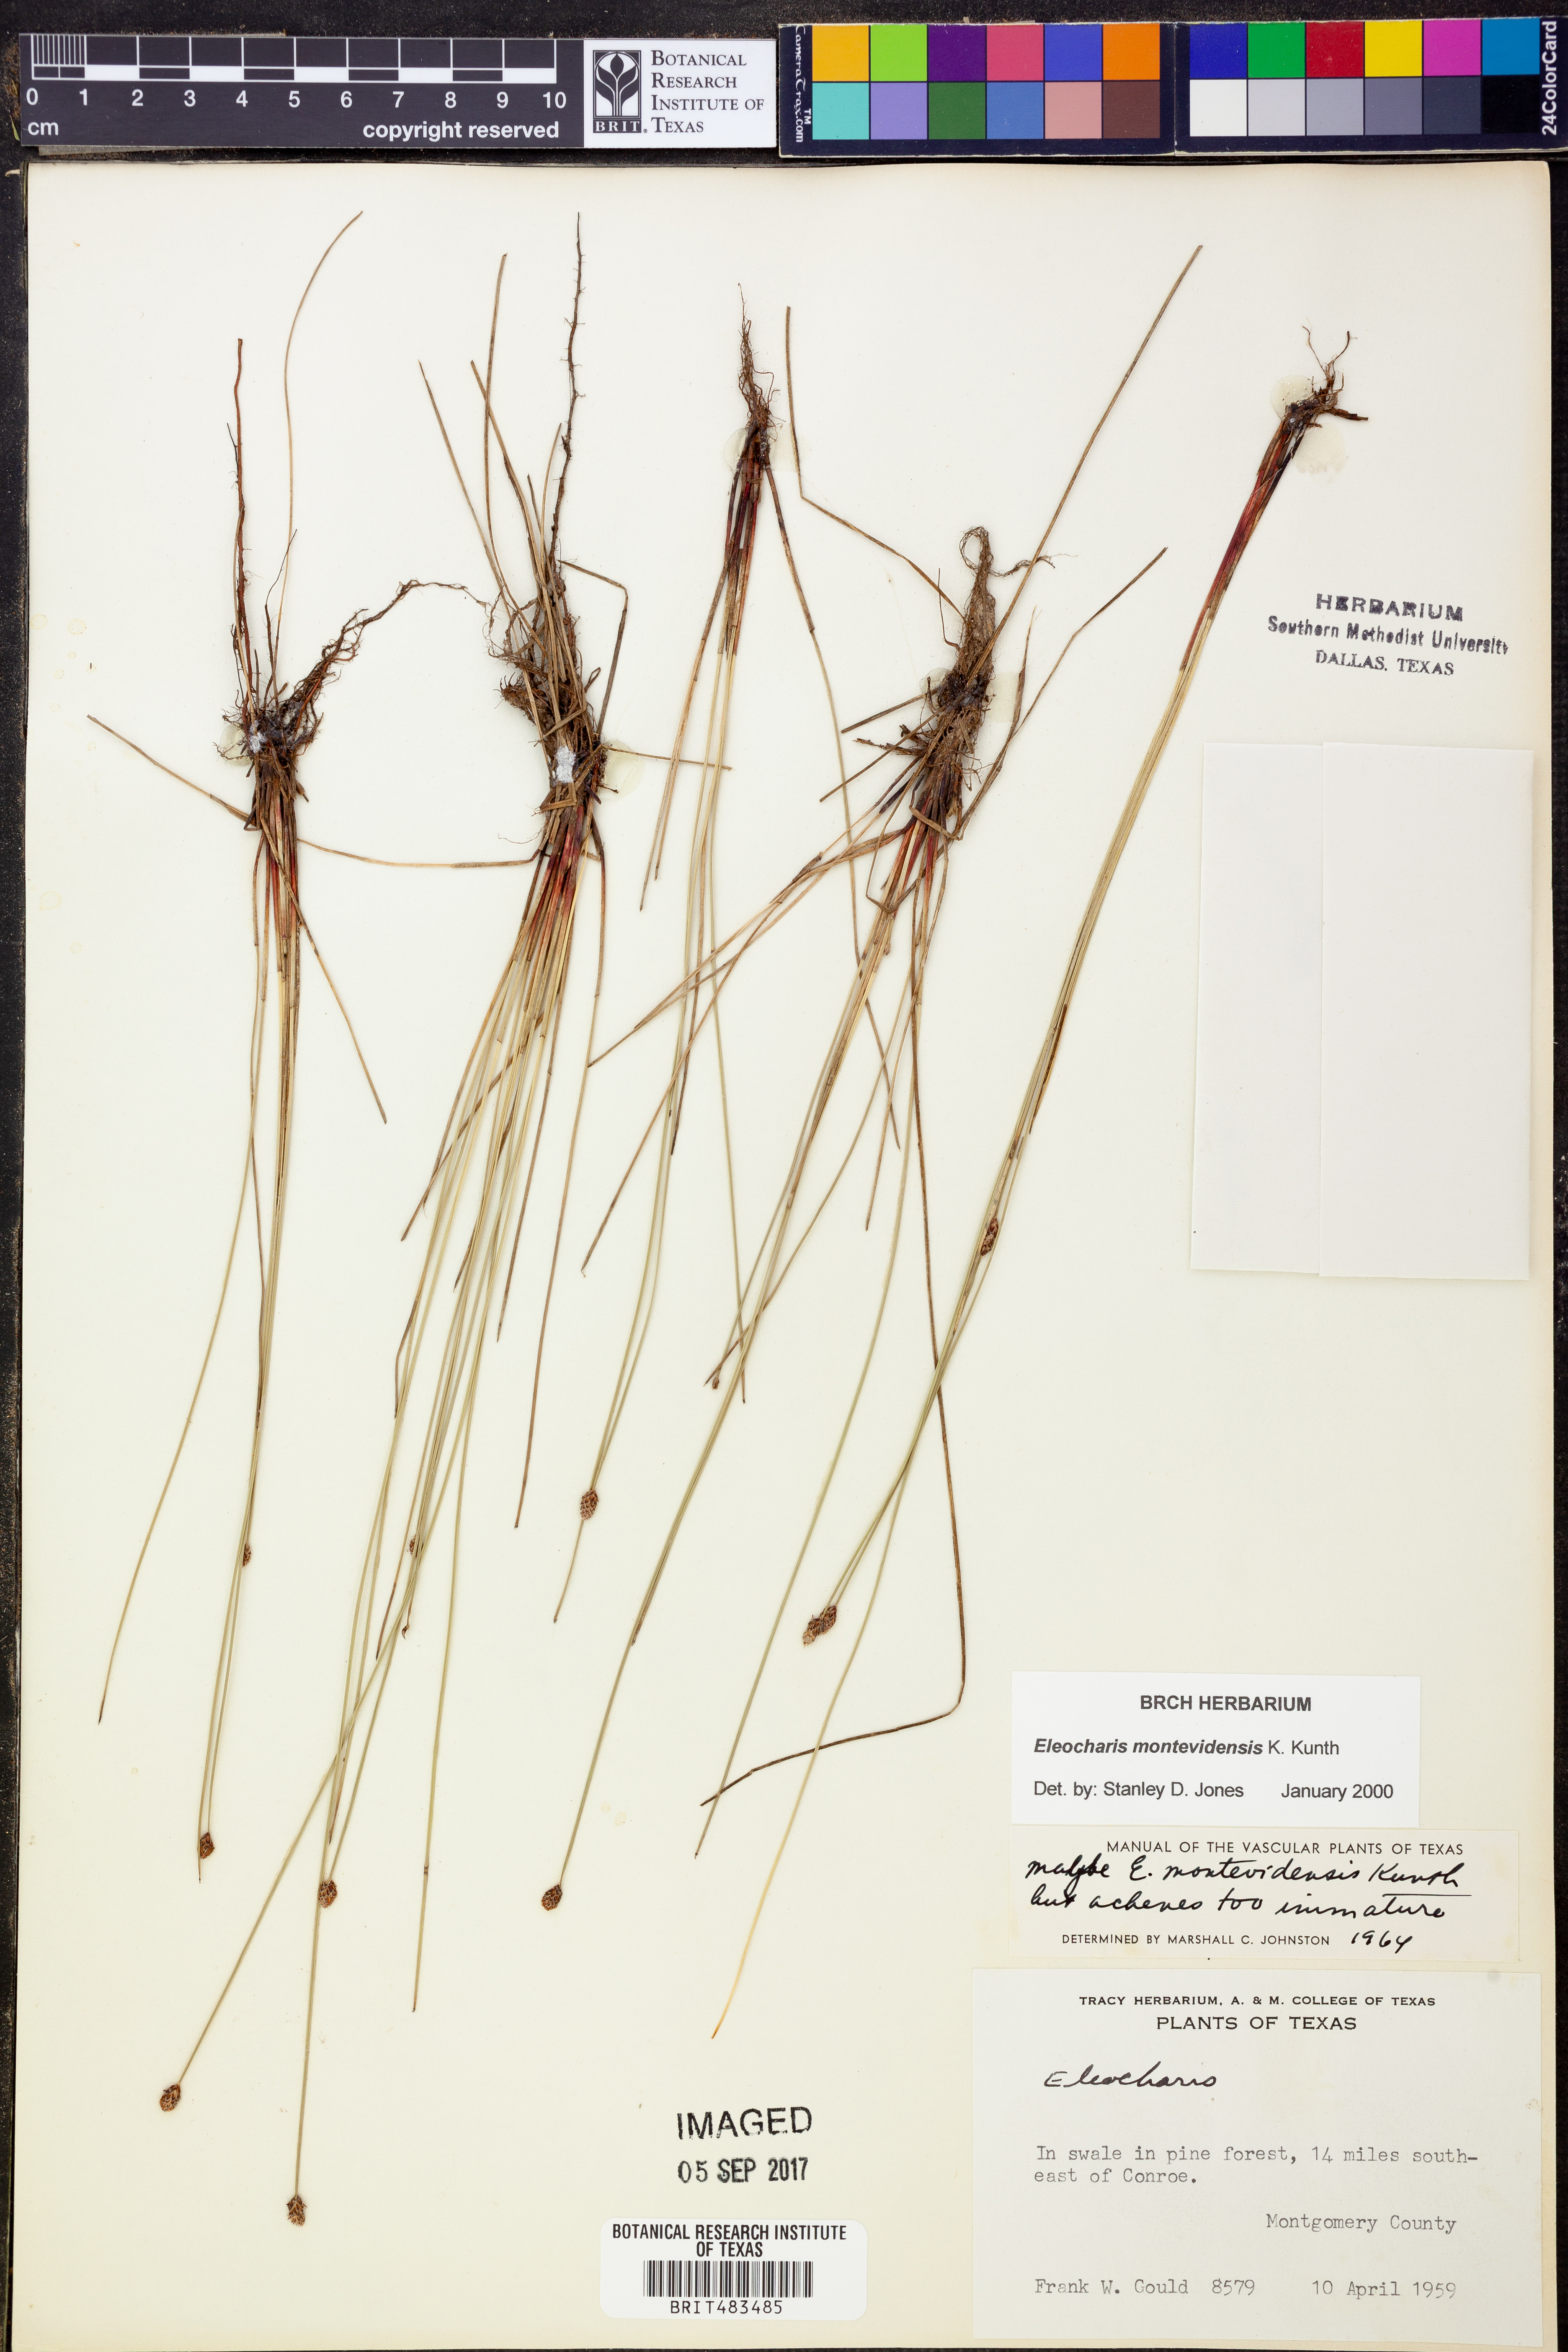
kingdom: Plantae
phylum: Tracheophyta
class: Liliopsida
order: Poales
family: Cyperaceae
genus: Eleocharis
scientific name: Eleocharis montevidensis
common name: Sand spike-rush
